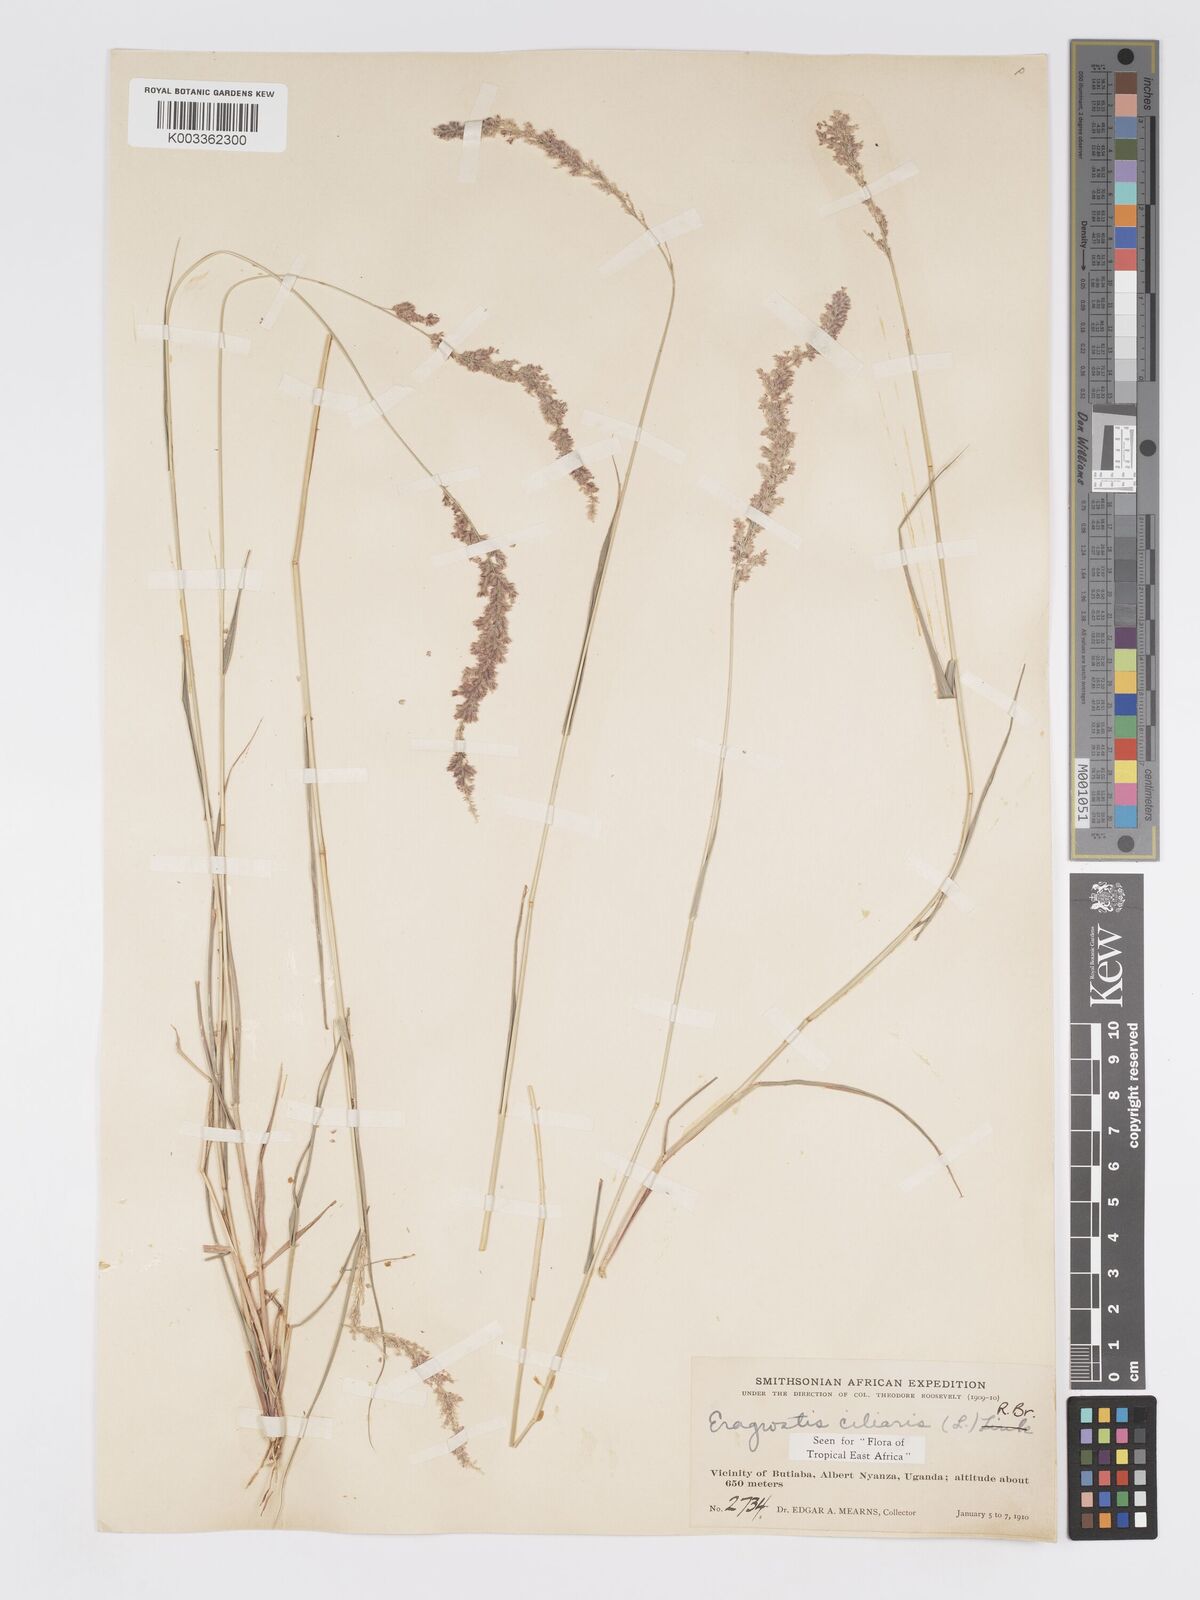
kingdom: Plantae
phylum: Tracheophyta
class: Liliopsida
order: Poales
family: Poaceae
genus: Eragrostis
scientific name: Eragrostis ciliaris
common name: Gophertail lovegrass
